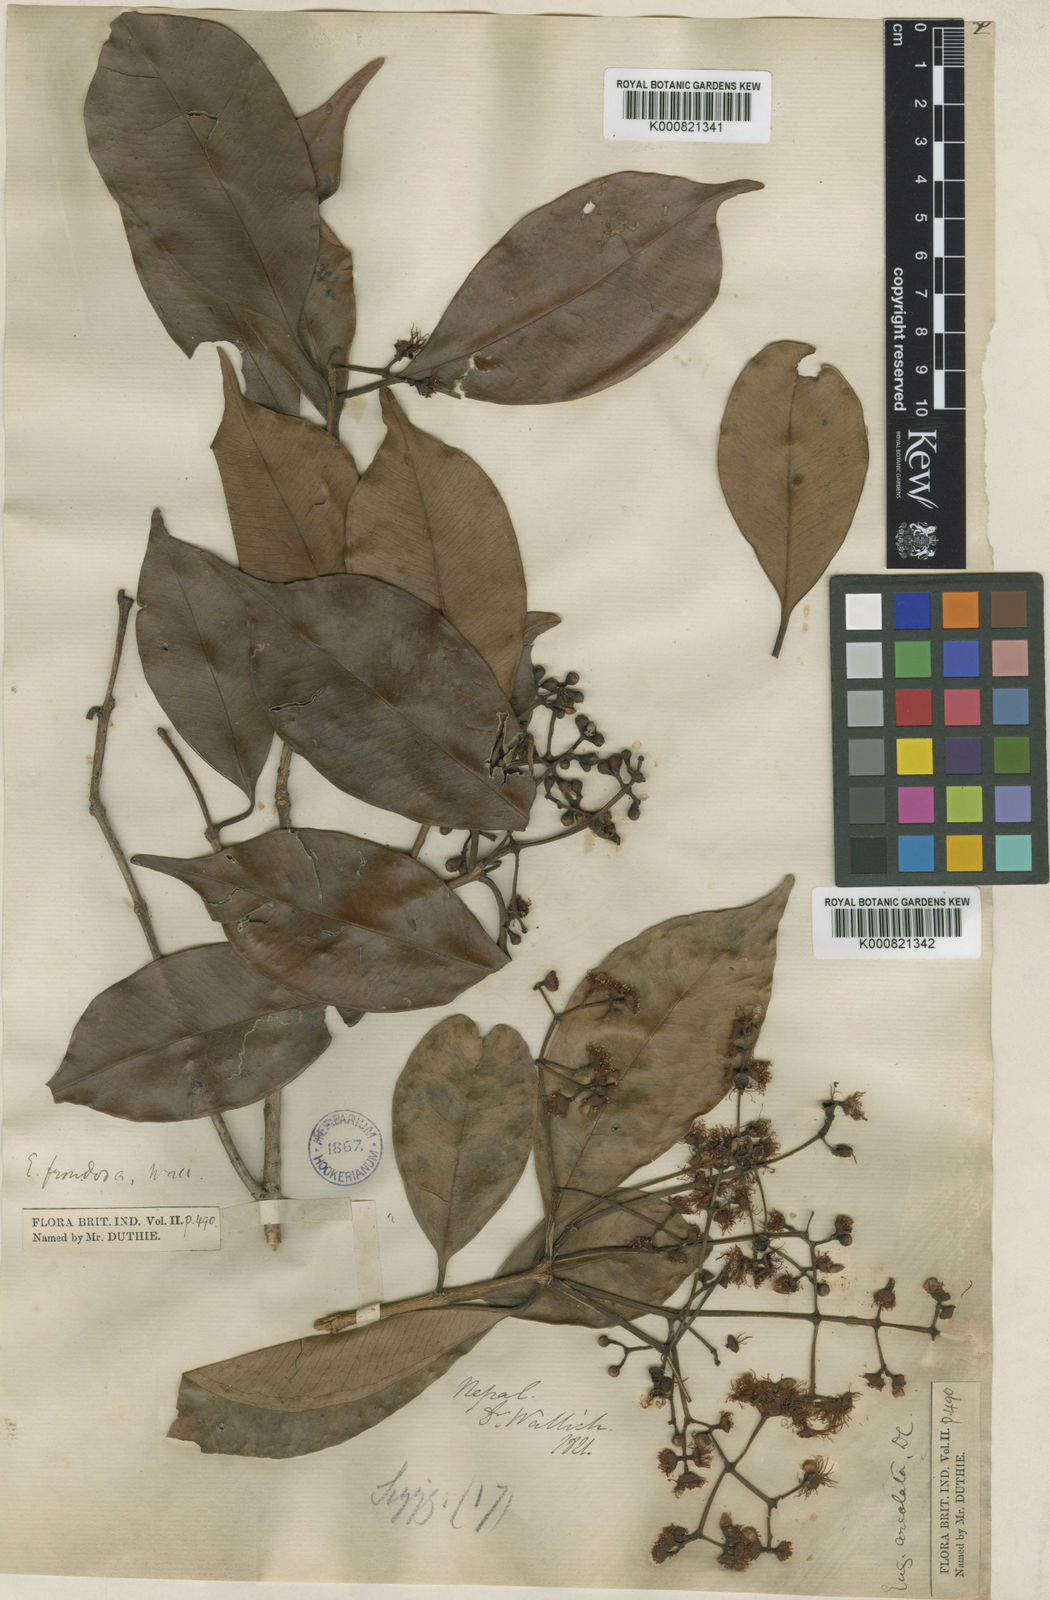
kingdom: Plantae
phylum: Tracheophyta
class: Magnoliopsida
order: Myrtales
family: Myrtaceae
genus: Syzygium
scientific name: Syzygium
